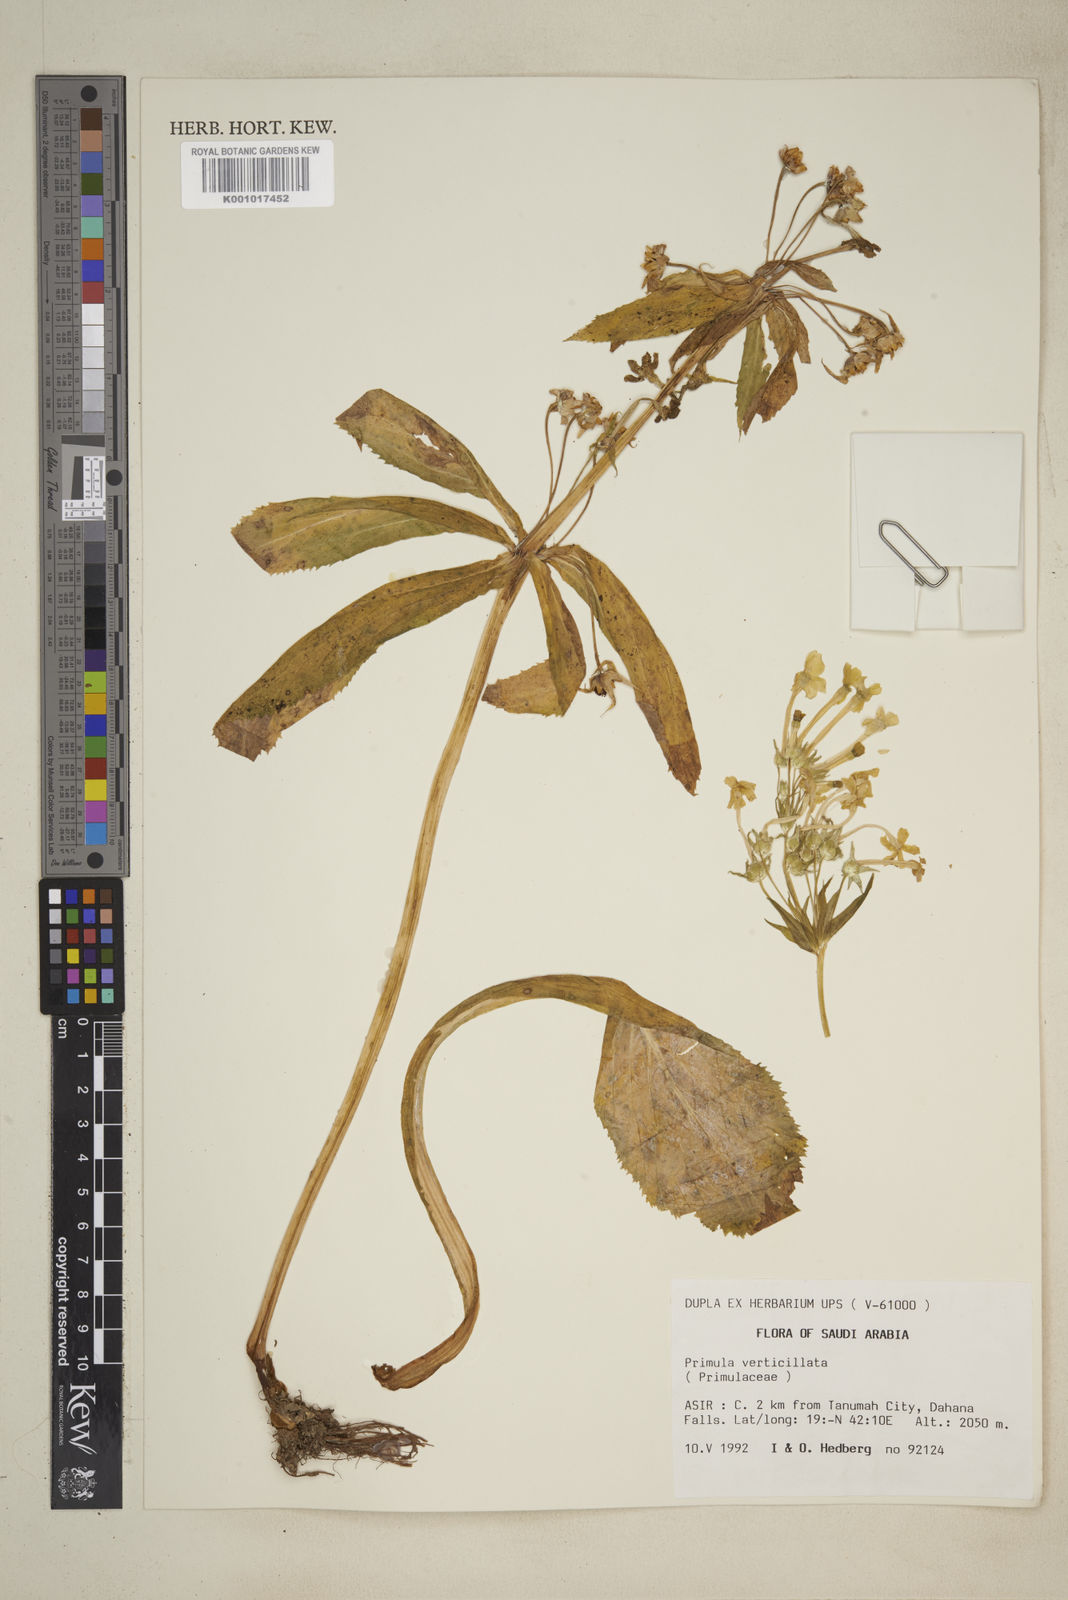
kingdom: Plantae
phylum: Tracheophyta
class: Magnoliopsida
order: Ericales
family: Primulaceae
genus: Evotrochis
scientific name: Evotrochis verticillata
